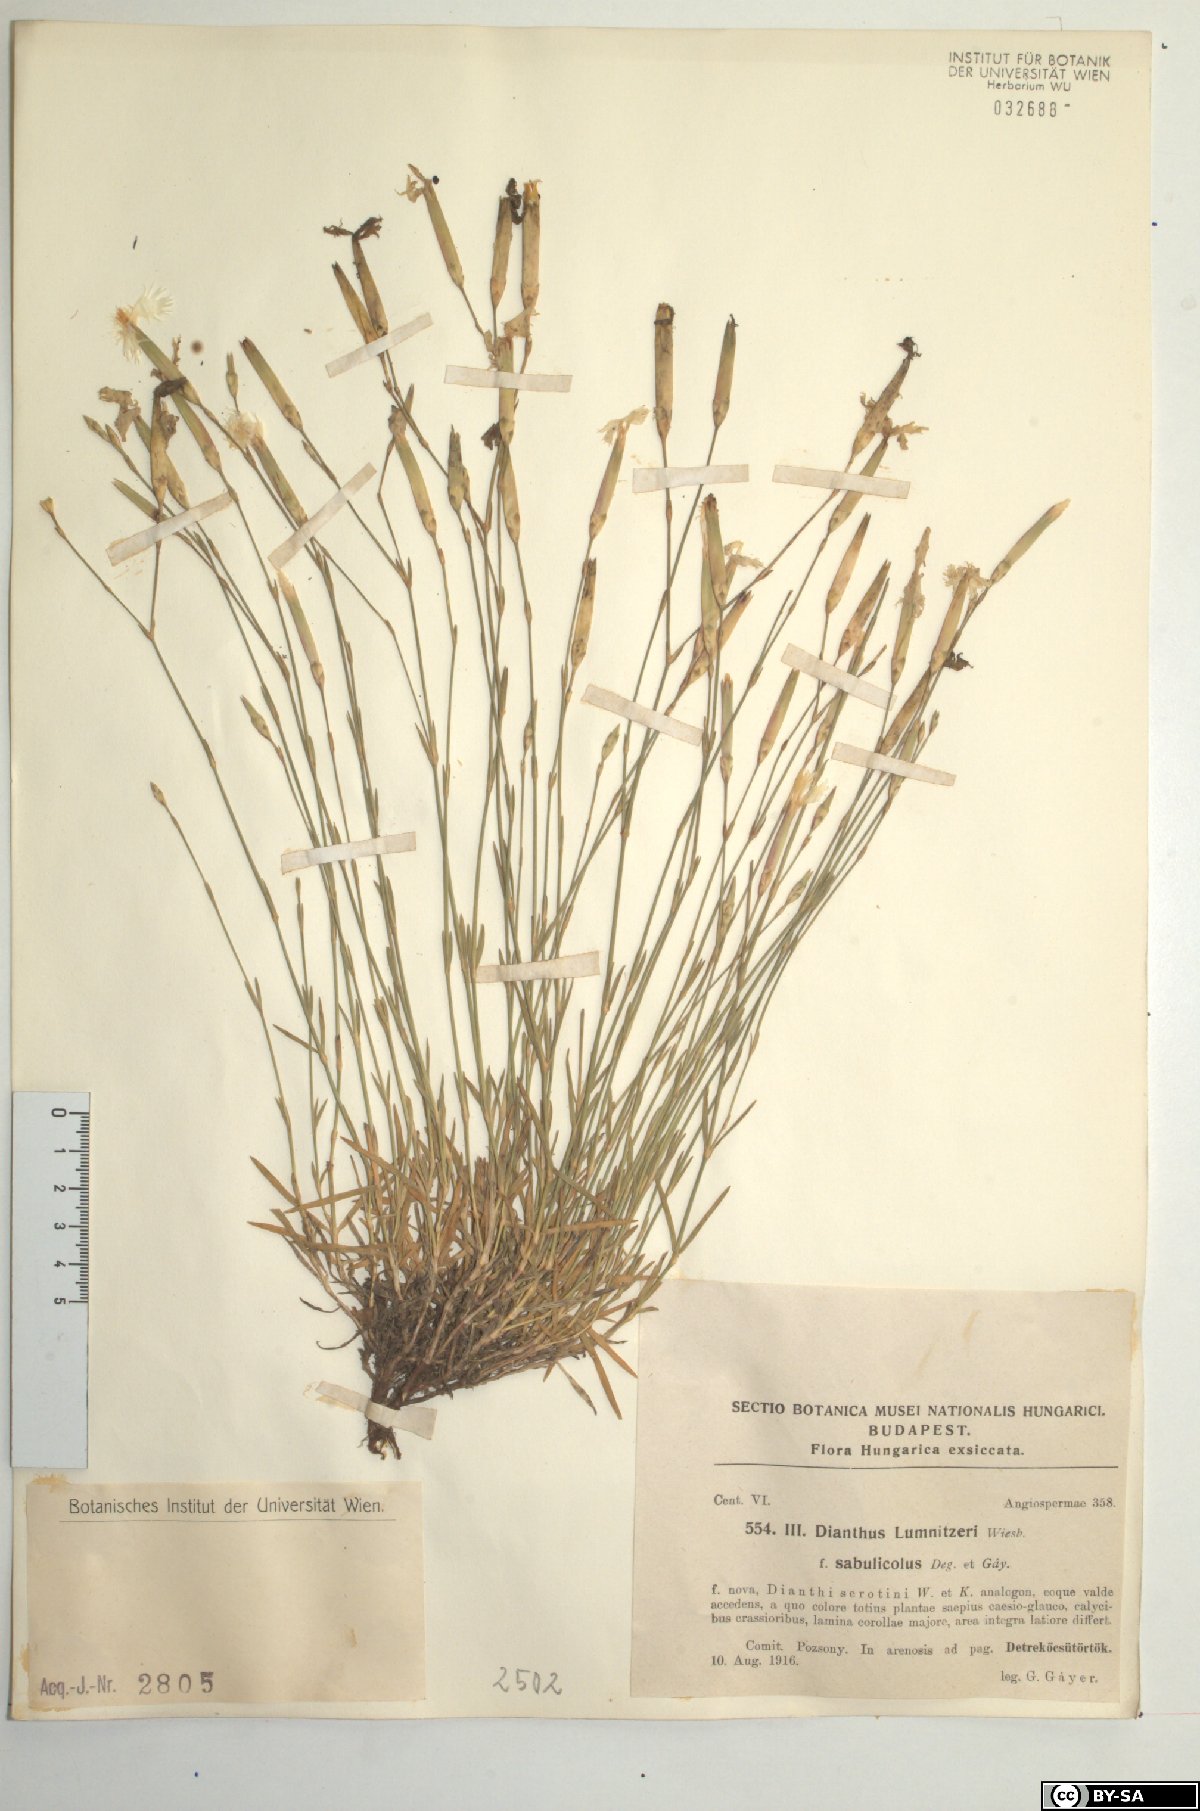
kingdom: Plantae
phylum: Tracheophyta
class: Magnoliopsida
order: Caryophyllales
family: Caryophyllaceae
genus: Dianthus
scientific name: Dianthus praecox
